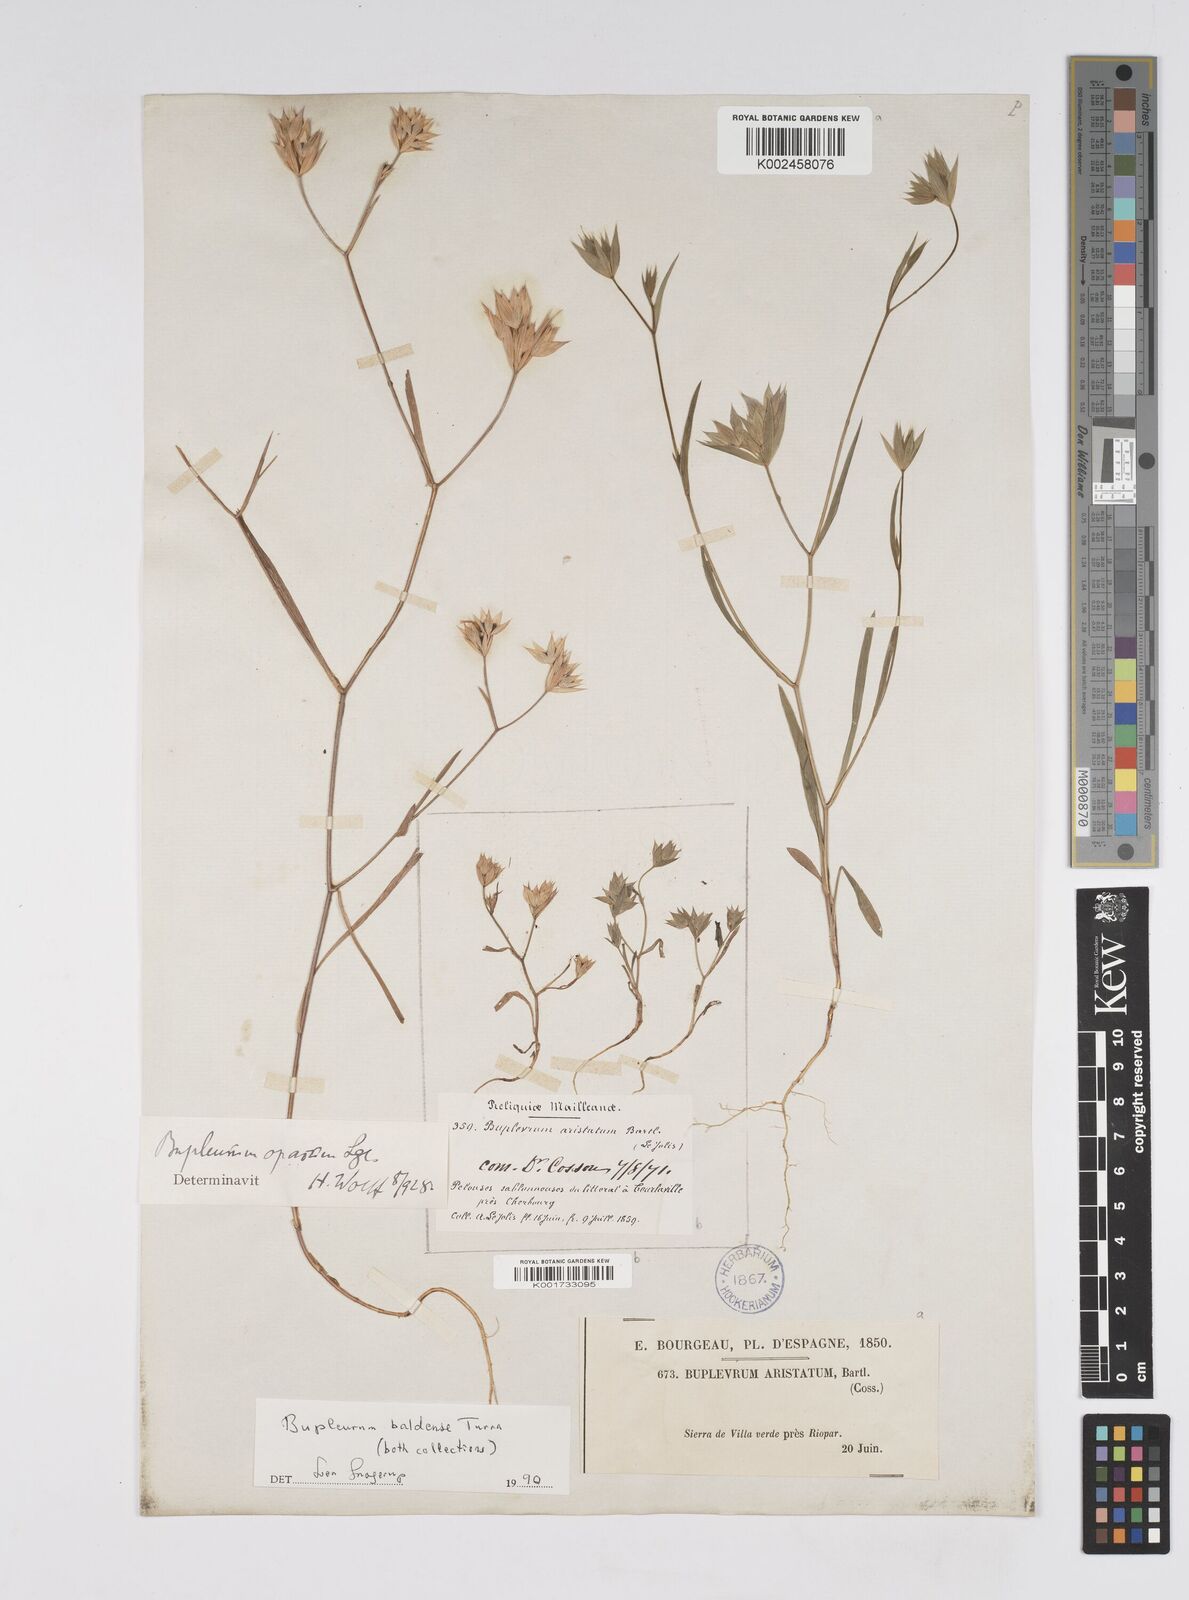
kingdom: Plantae
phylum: Tracheophyta
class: Magnoliopsida
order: Apiales
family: Apiaceae
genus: Bupleurum
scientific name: Bupleurum baldense
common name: Small hare's-ear
